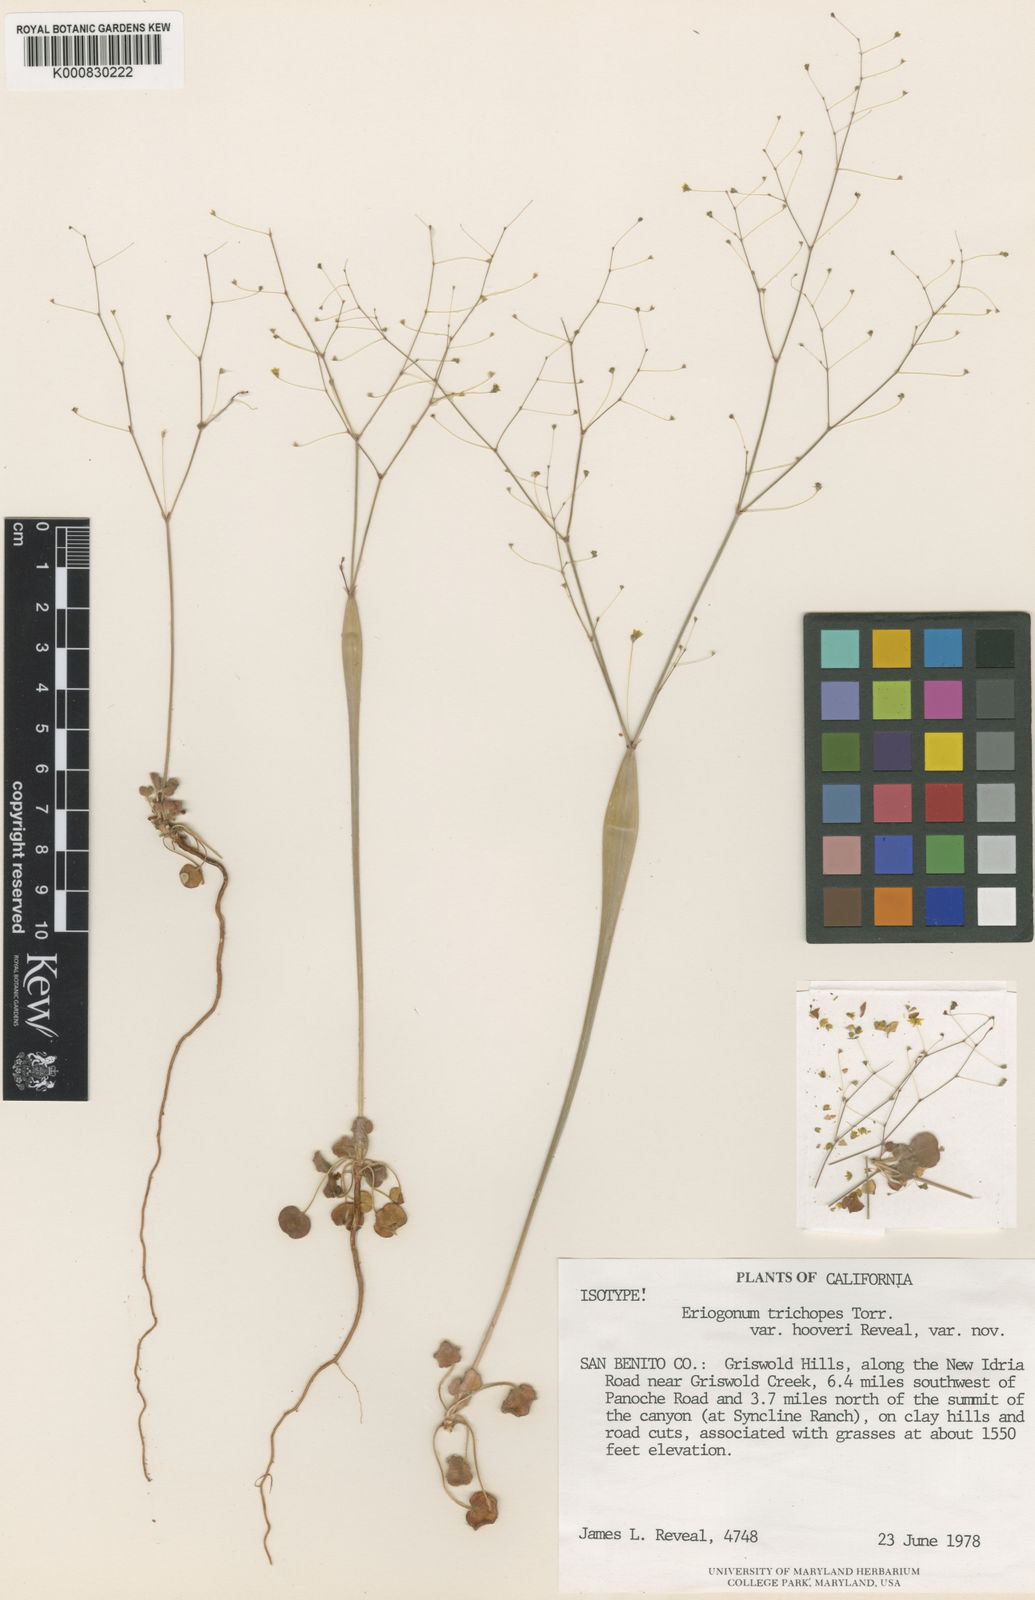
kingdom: Plantae
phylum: Tracheophyta
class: Magnoliopsida
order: Caryophyllales
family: Polygonaceae
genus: Eriogonum
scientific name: Eriogonum clavatum
